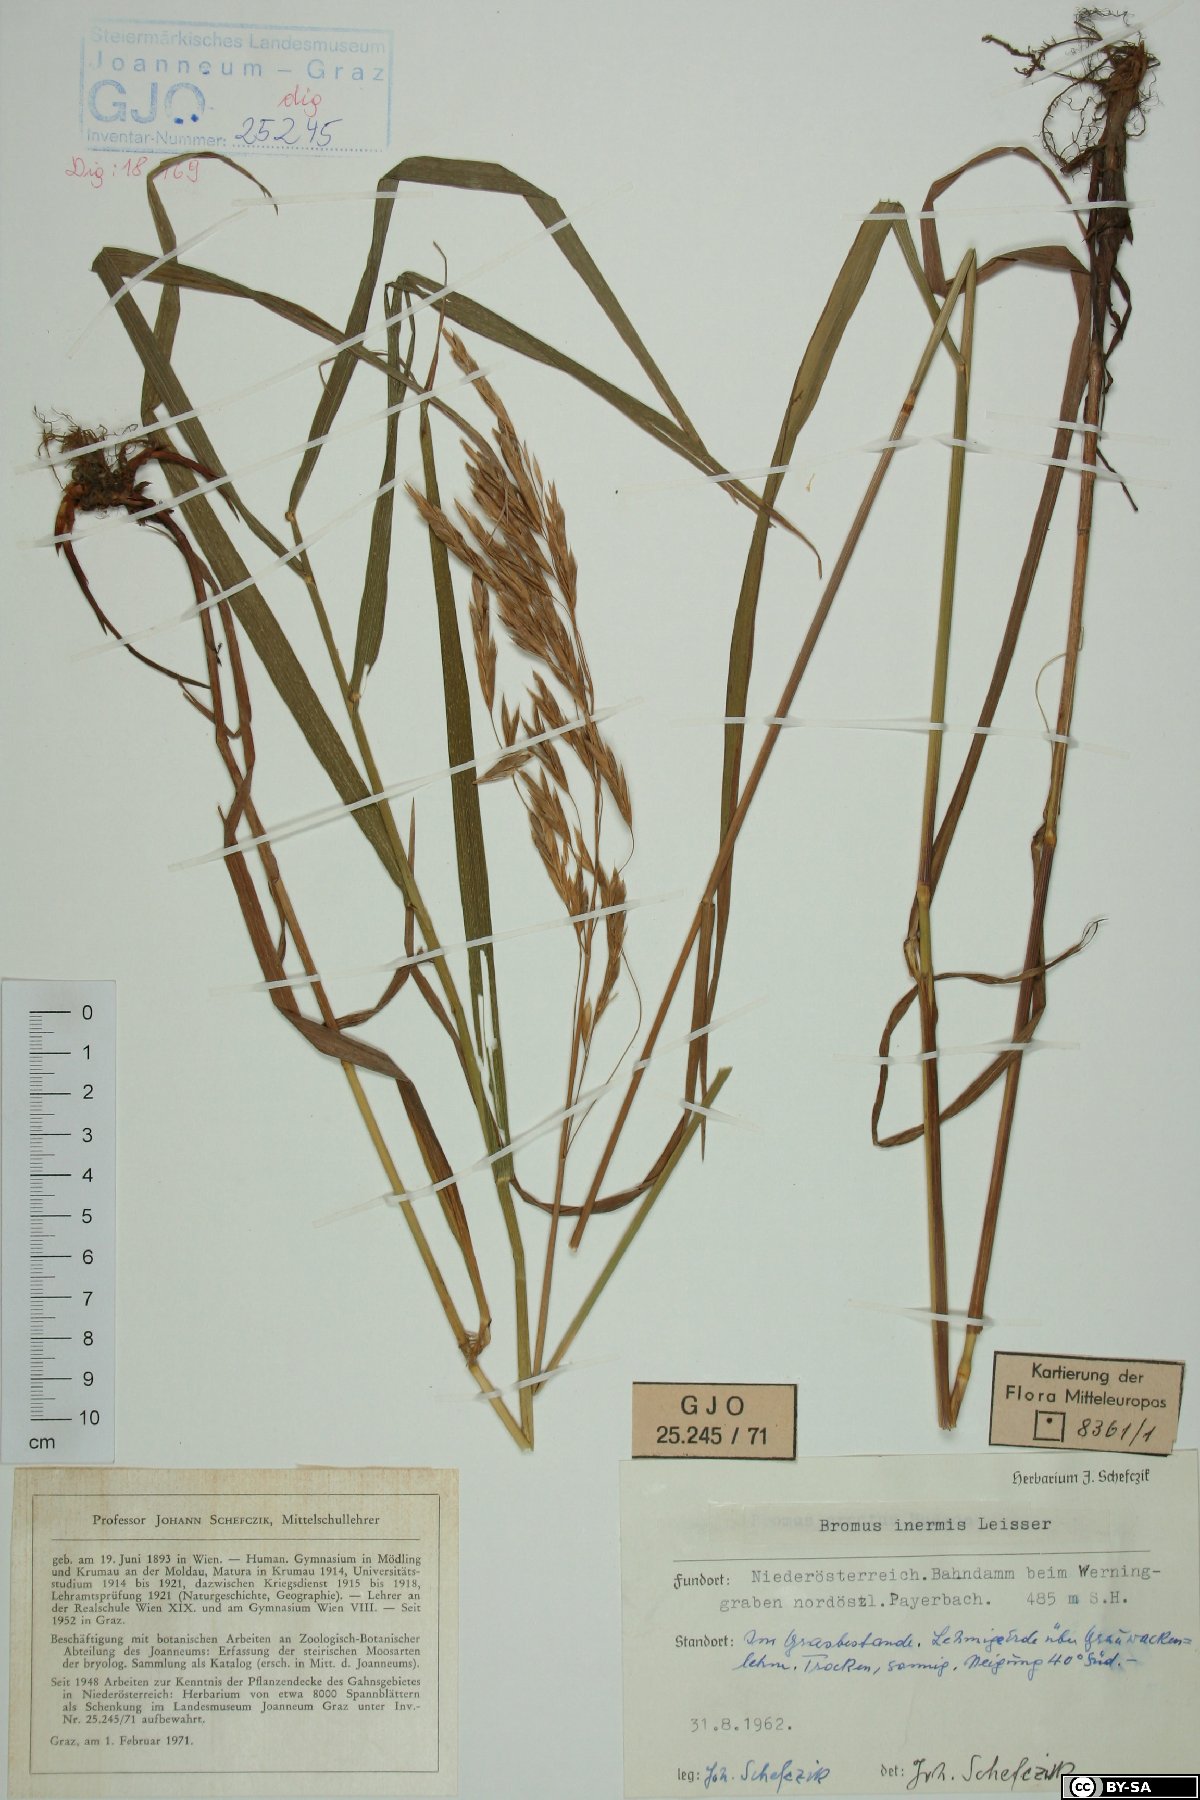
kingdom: Plantae
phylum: Tracheophyta
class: Liliopsida
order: Poales
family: Poaceae
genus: Bromus
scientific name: Bromus inermis
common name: Smooth brome
